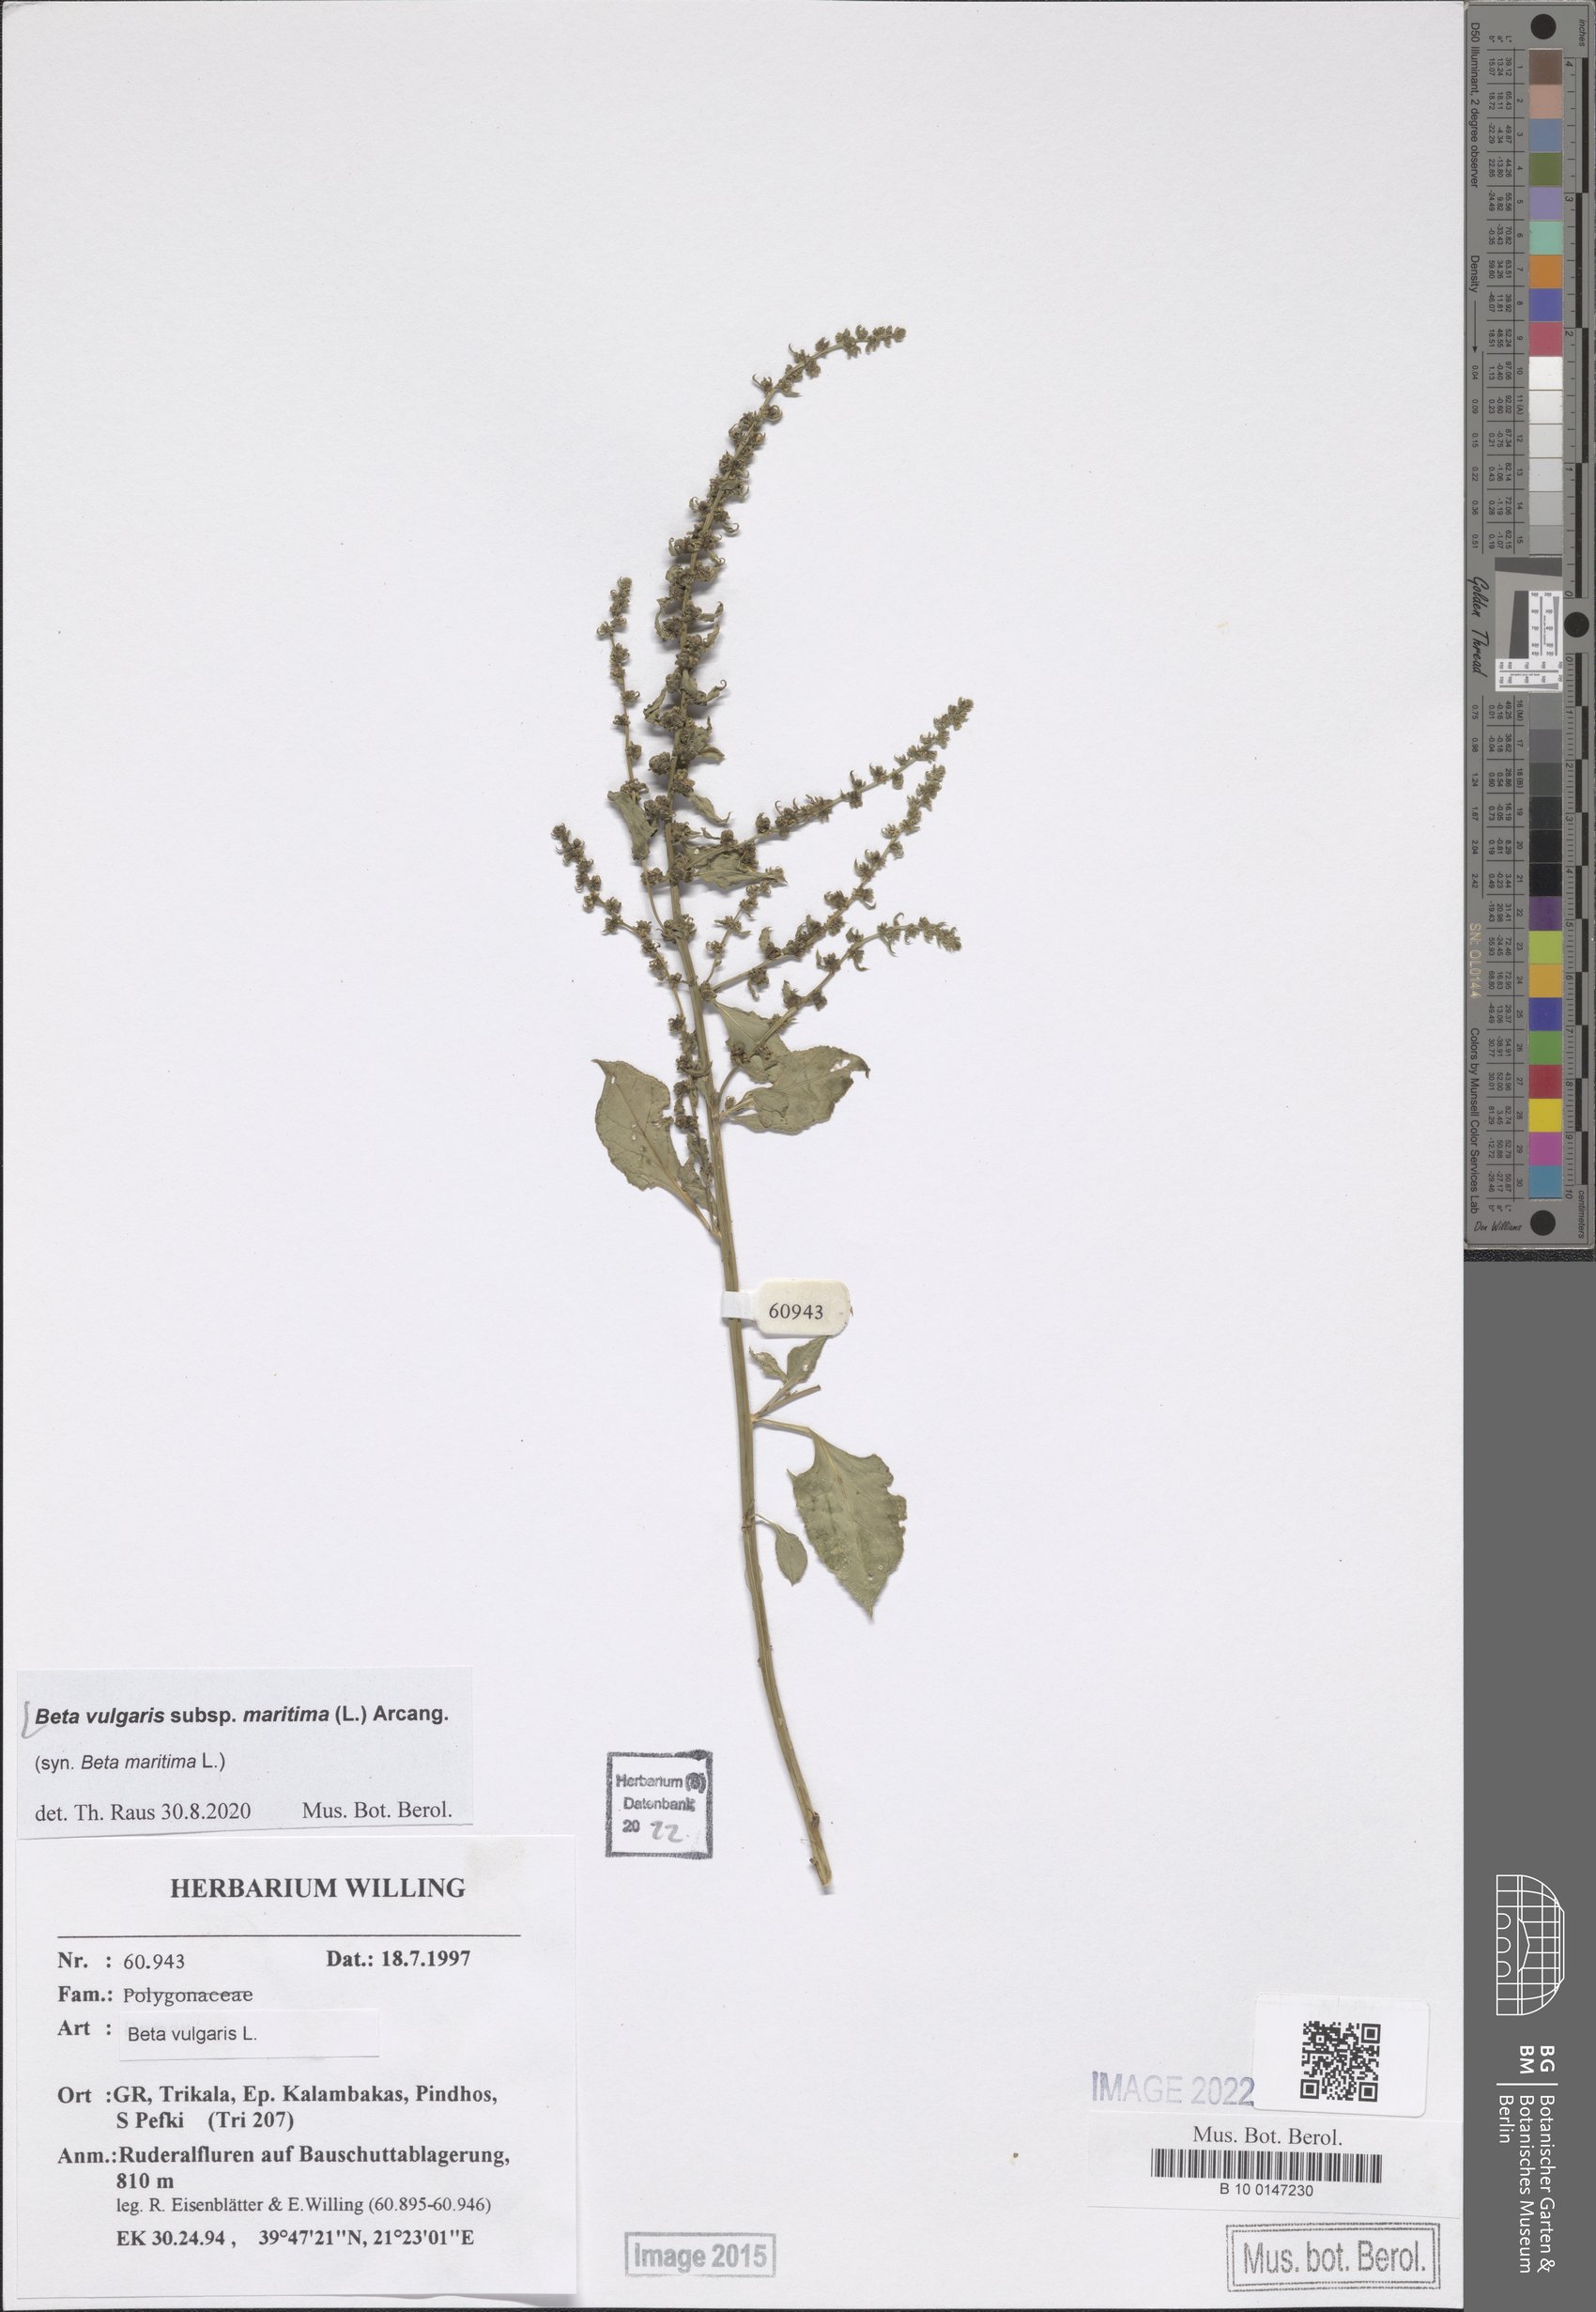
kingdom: Plantae
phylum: Tracheophyta
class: Magnoliopsida
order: Caryophyllales
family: Amaranthaceae
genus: Beta
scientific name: Beta maritima
